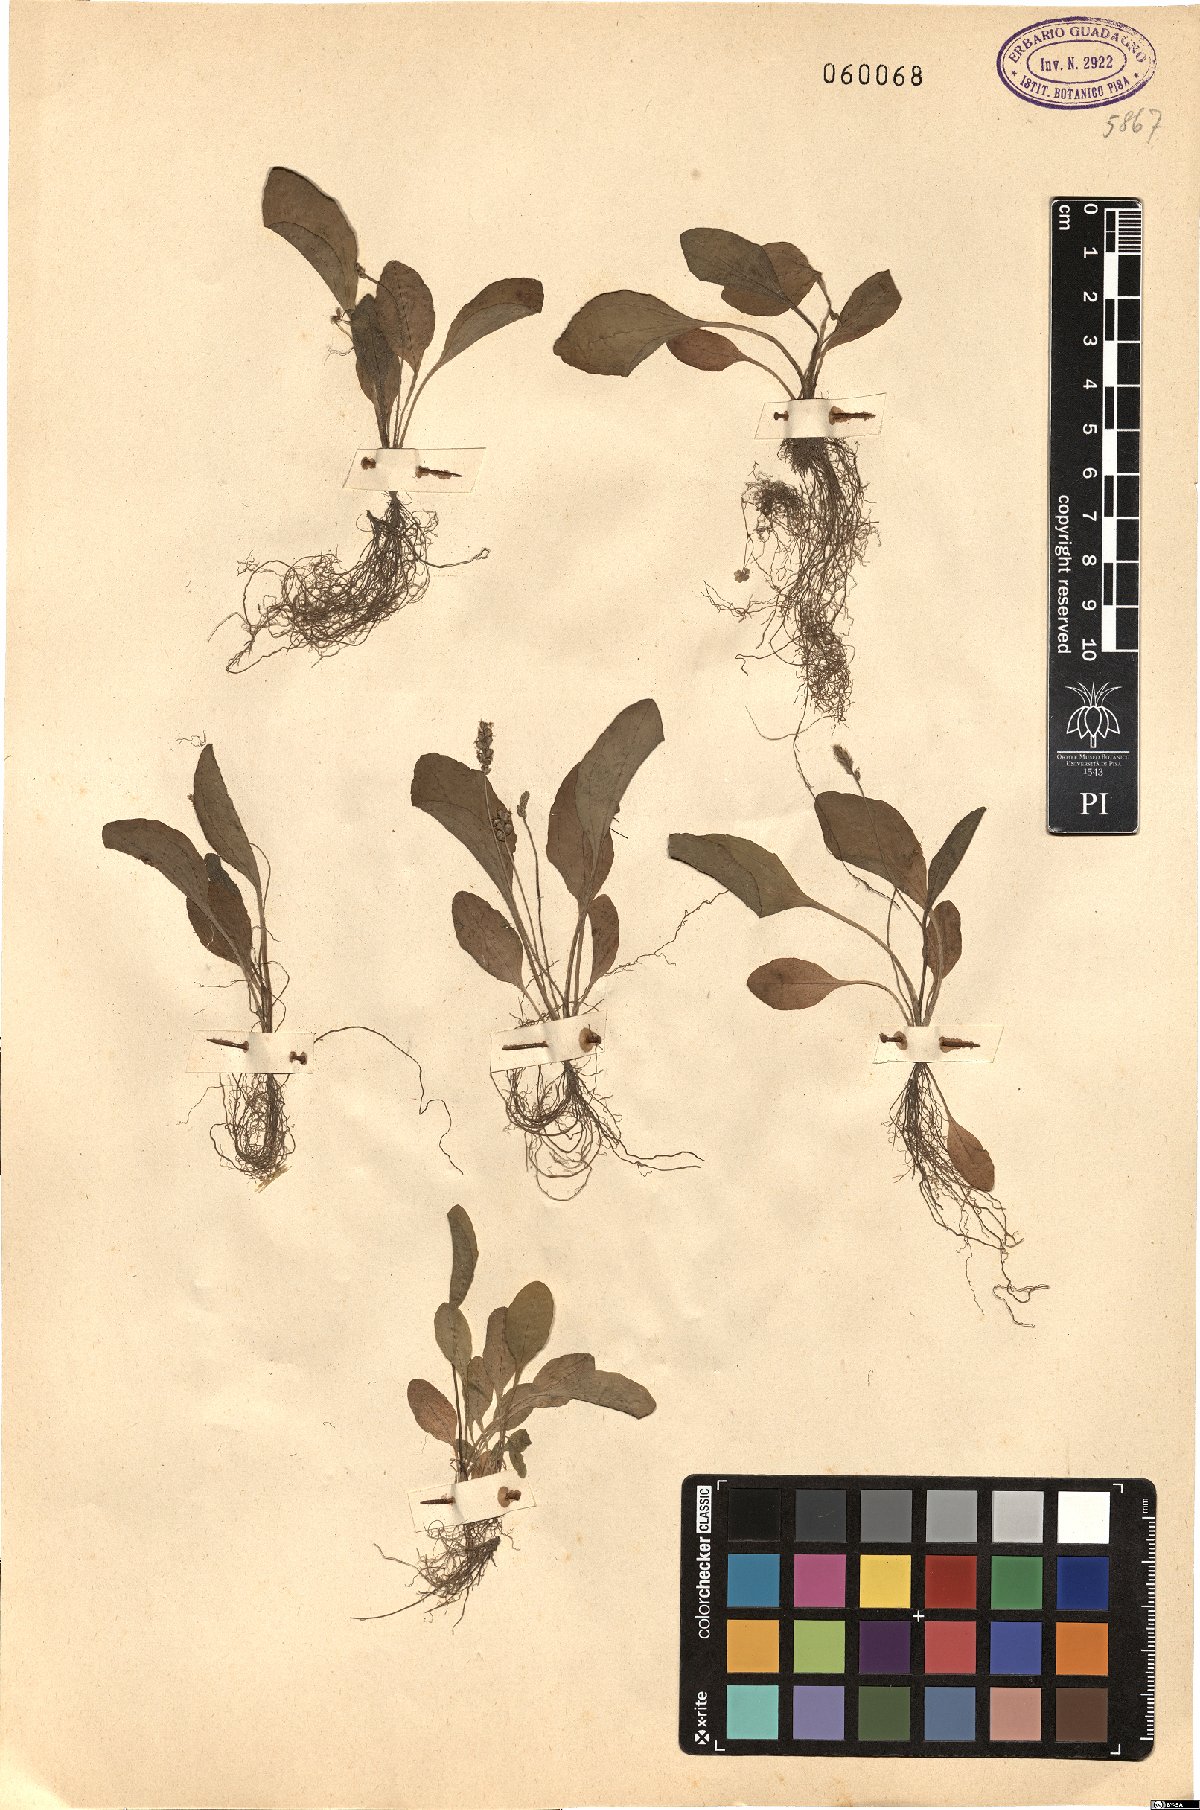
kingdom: Plantae
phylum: Tracheophyta
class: Magnoliopsida
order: Lamiales
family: Plantaginaceae
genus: Plantago
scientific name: Plantago
